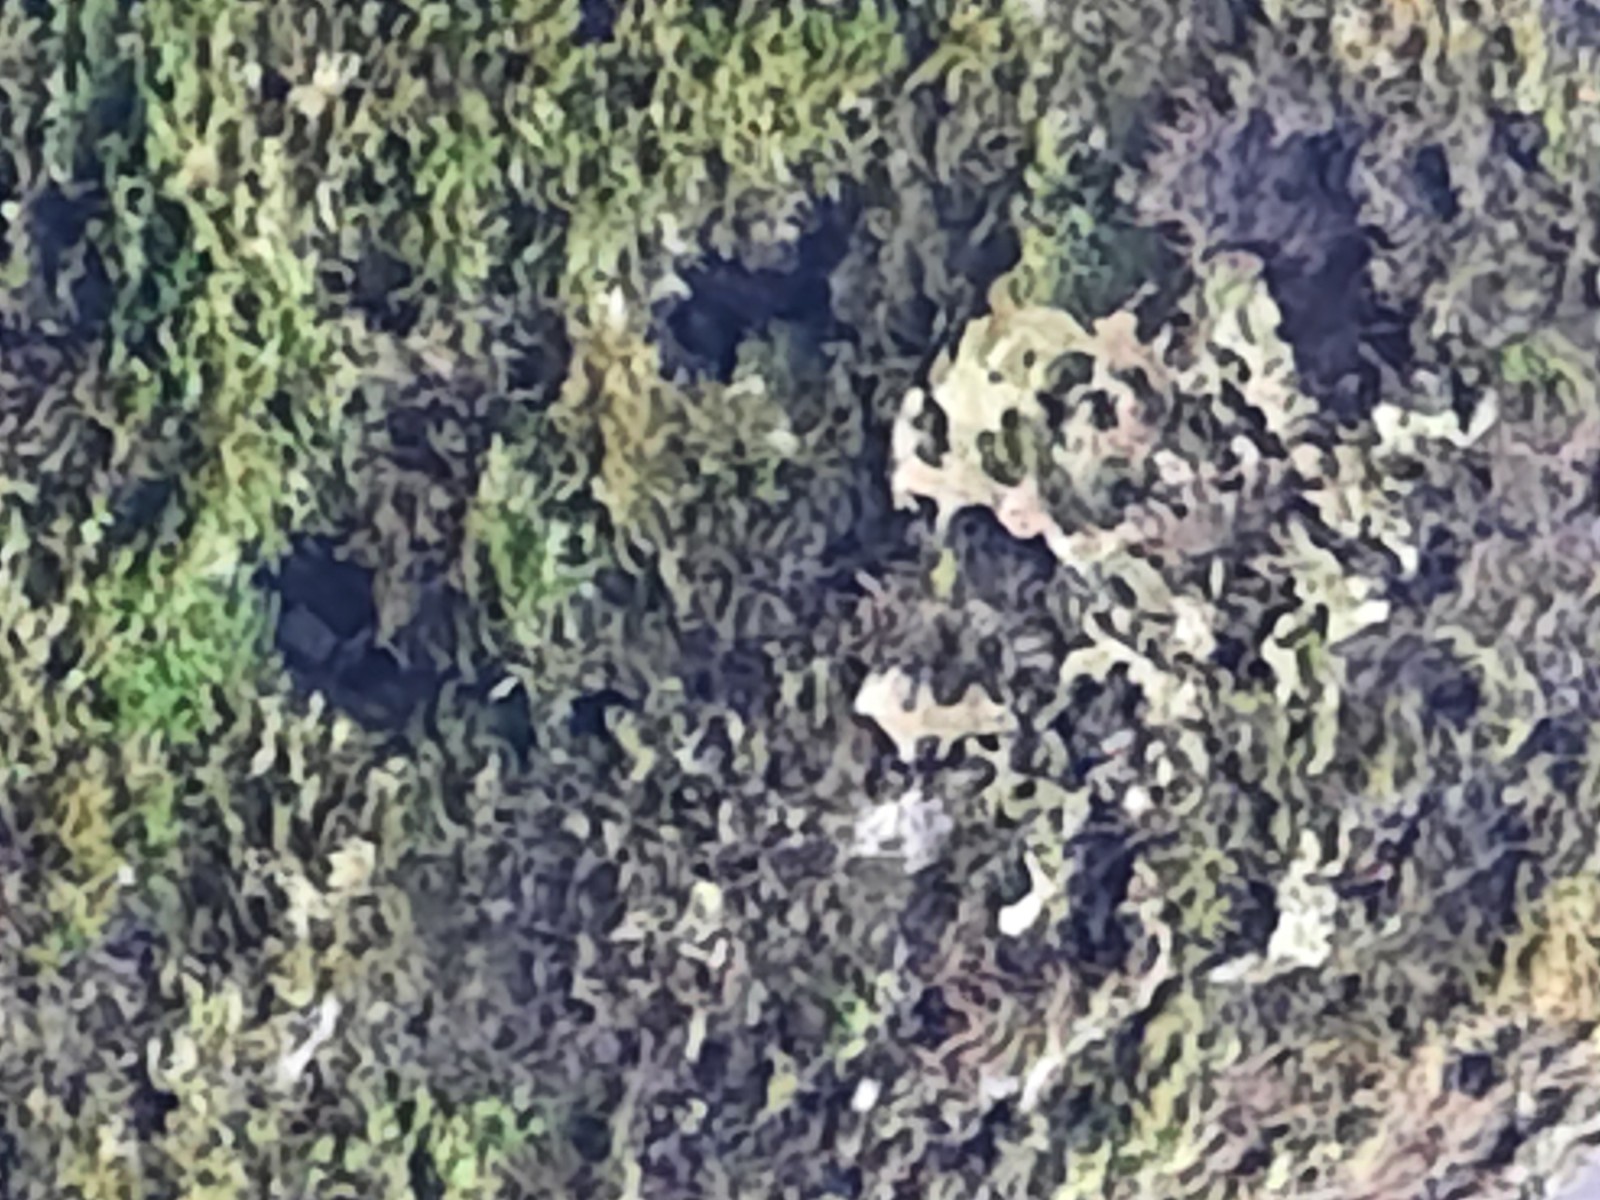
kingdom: Fungi
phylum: Ascomycota
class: Lecanoromycetes
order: Peltigerales
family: Lobariaceae
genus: Lobaria
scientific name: Lobaria pulmonaria
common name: almindelig lungelav
